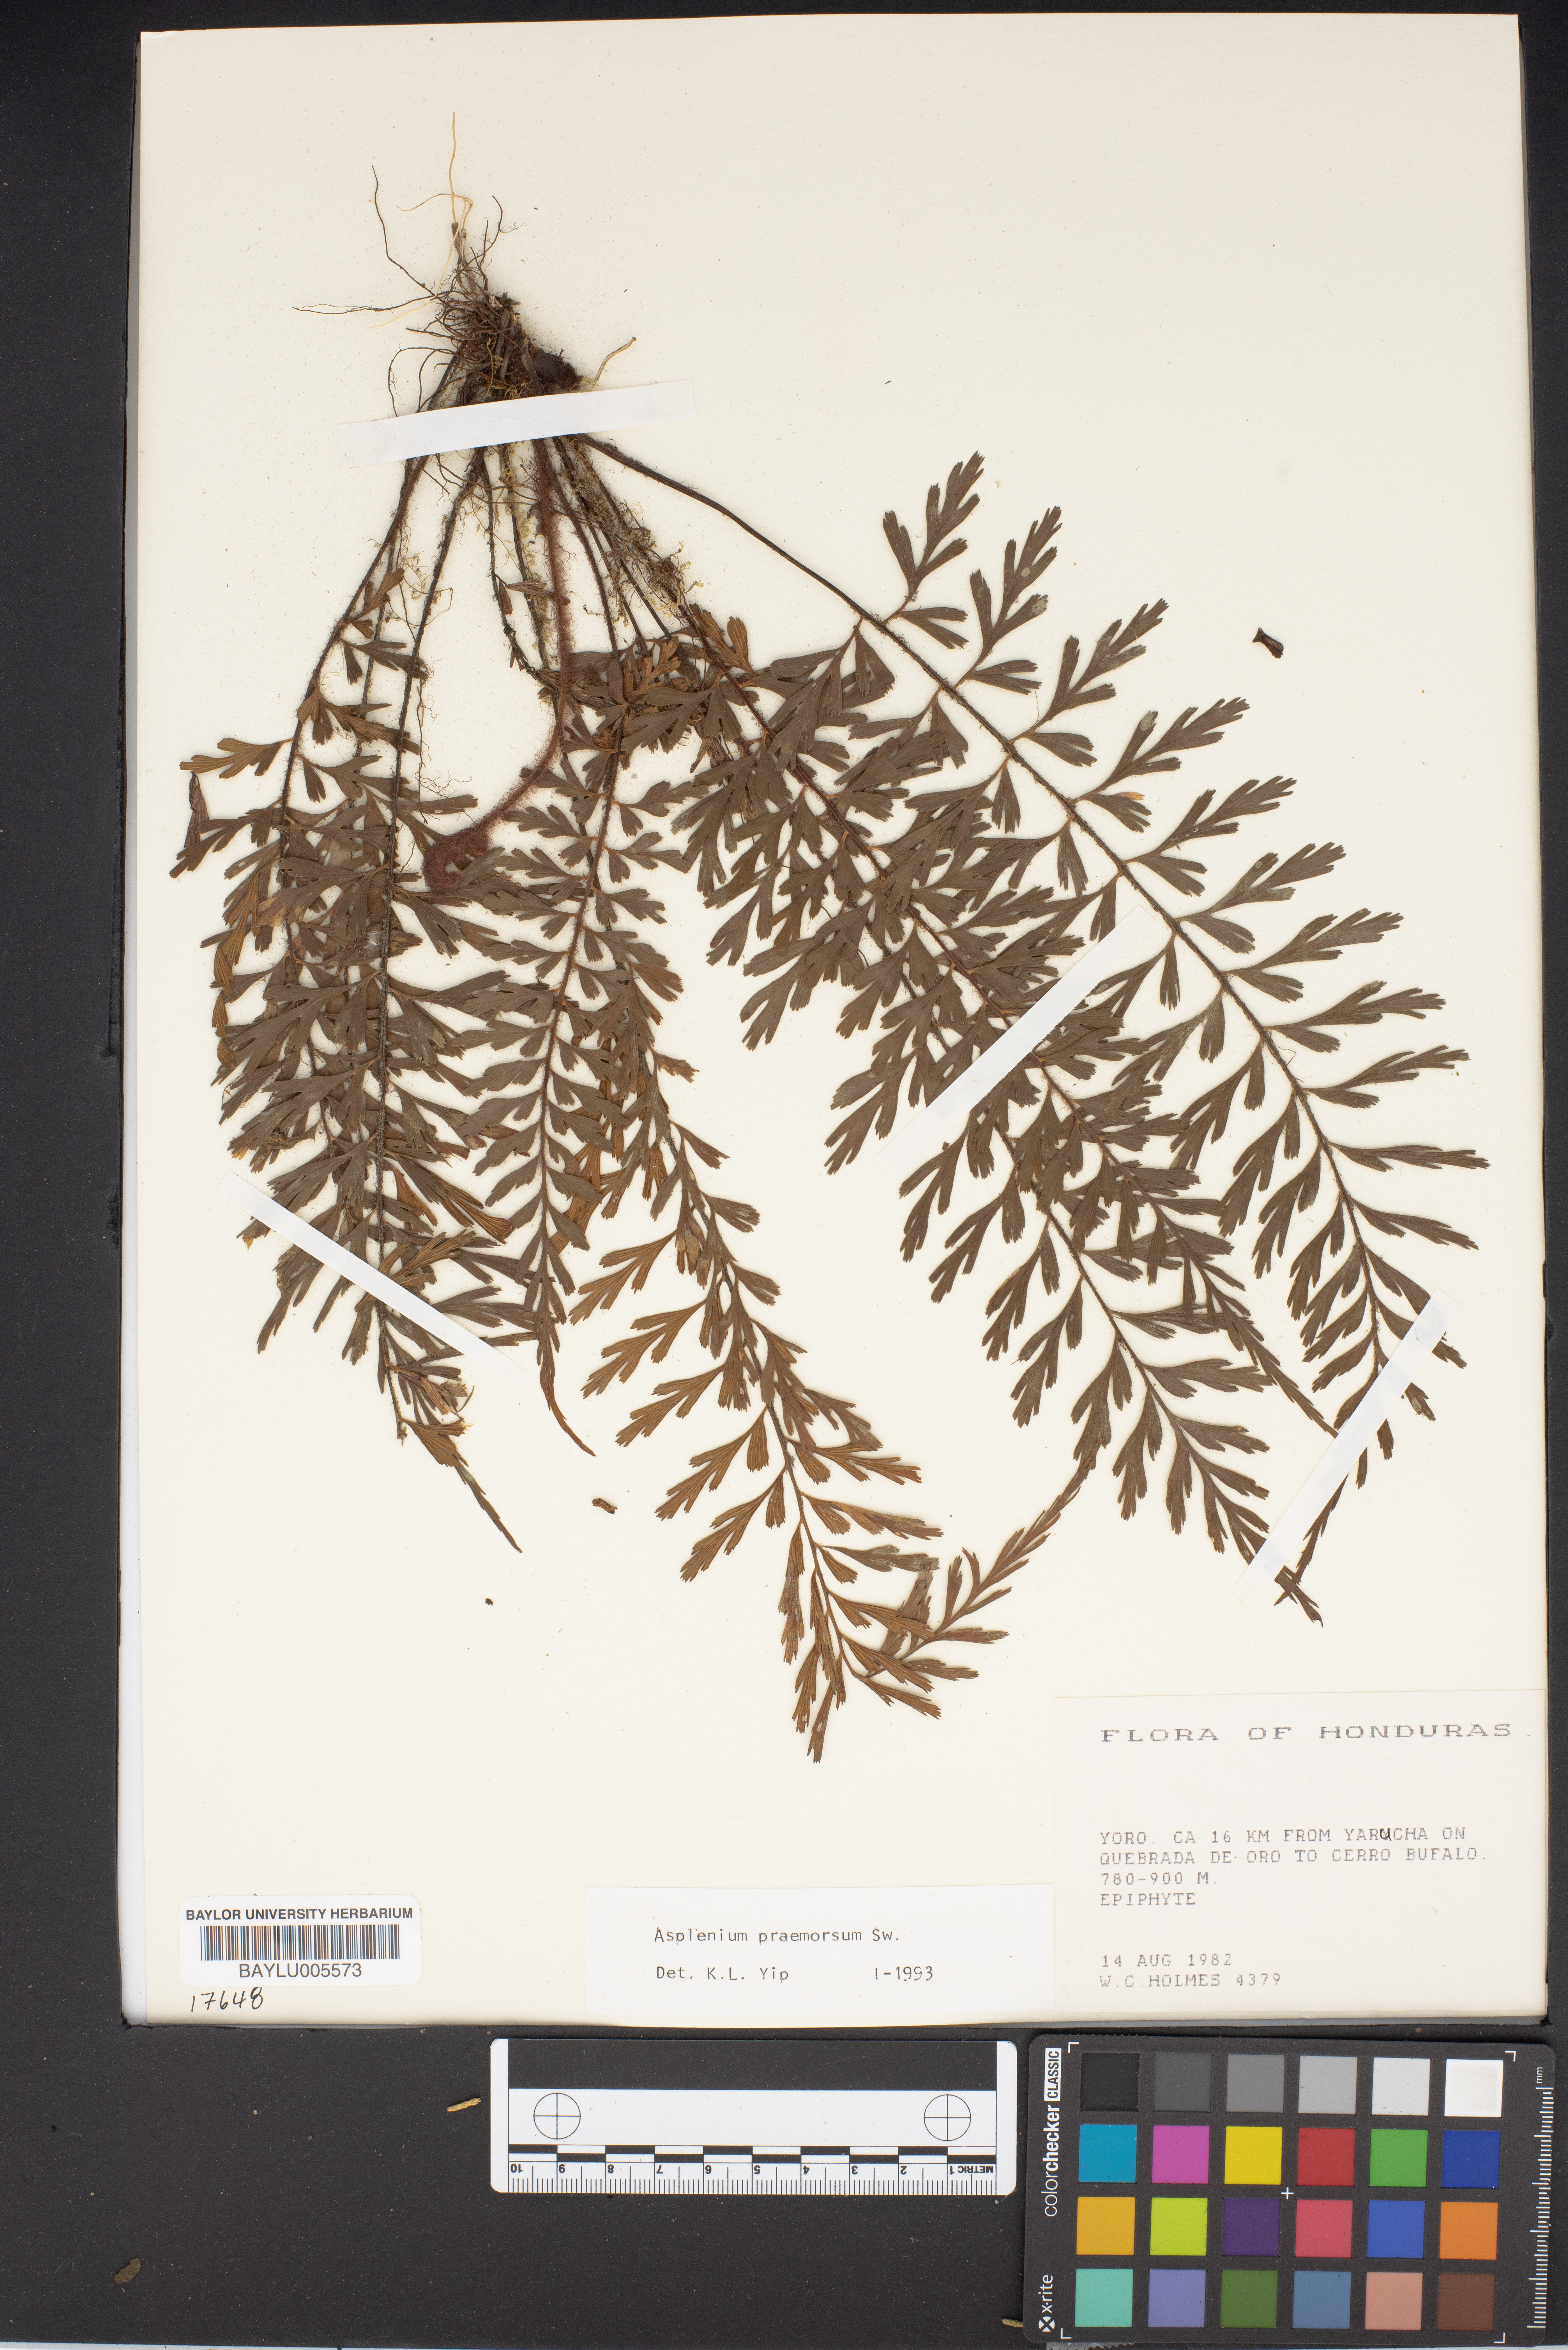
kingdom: Plantae
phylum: Tracheophyta
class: Polypodiopsida
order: Polypodiales
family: Aspleniaceae
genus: Asplenium
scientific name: Asplenium praemorsum
